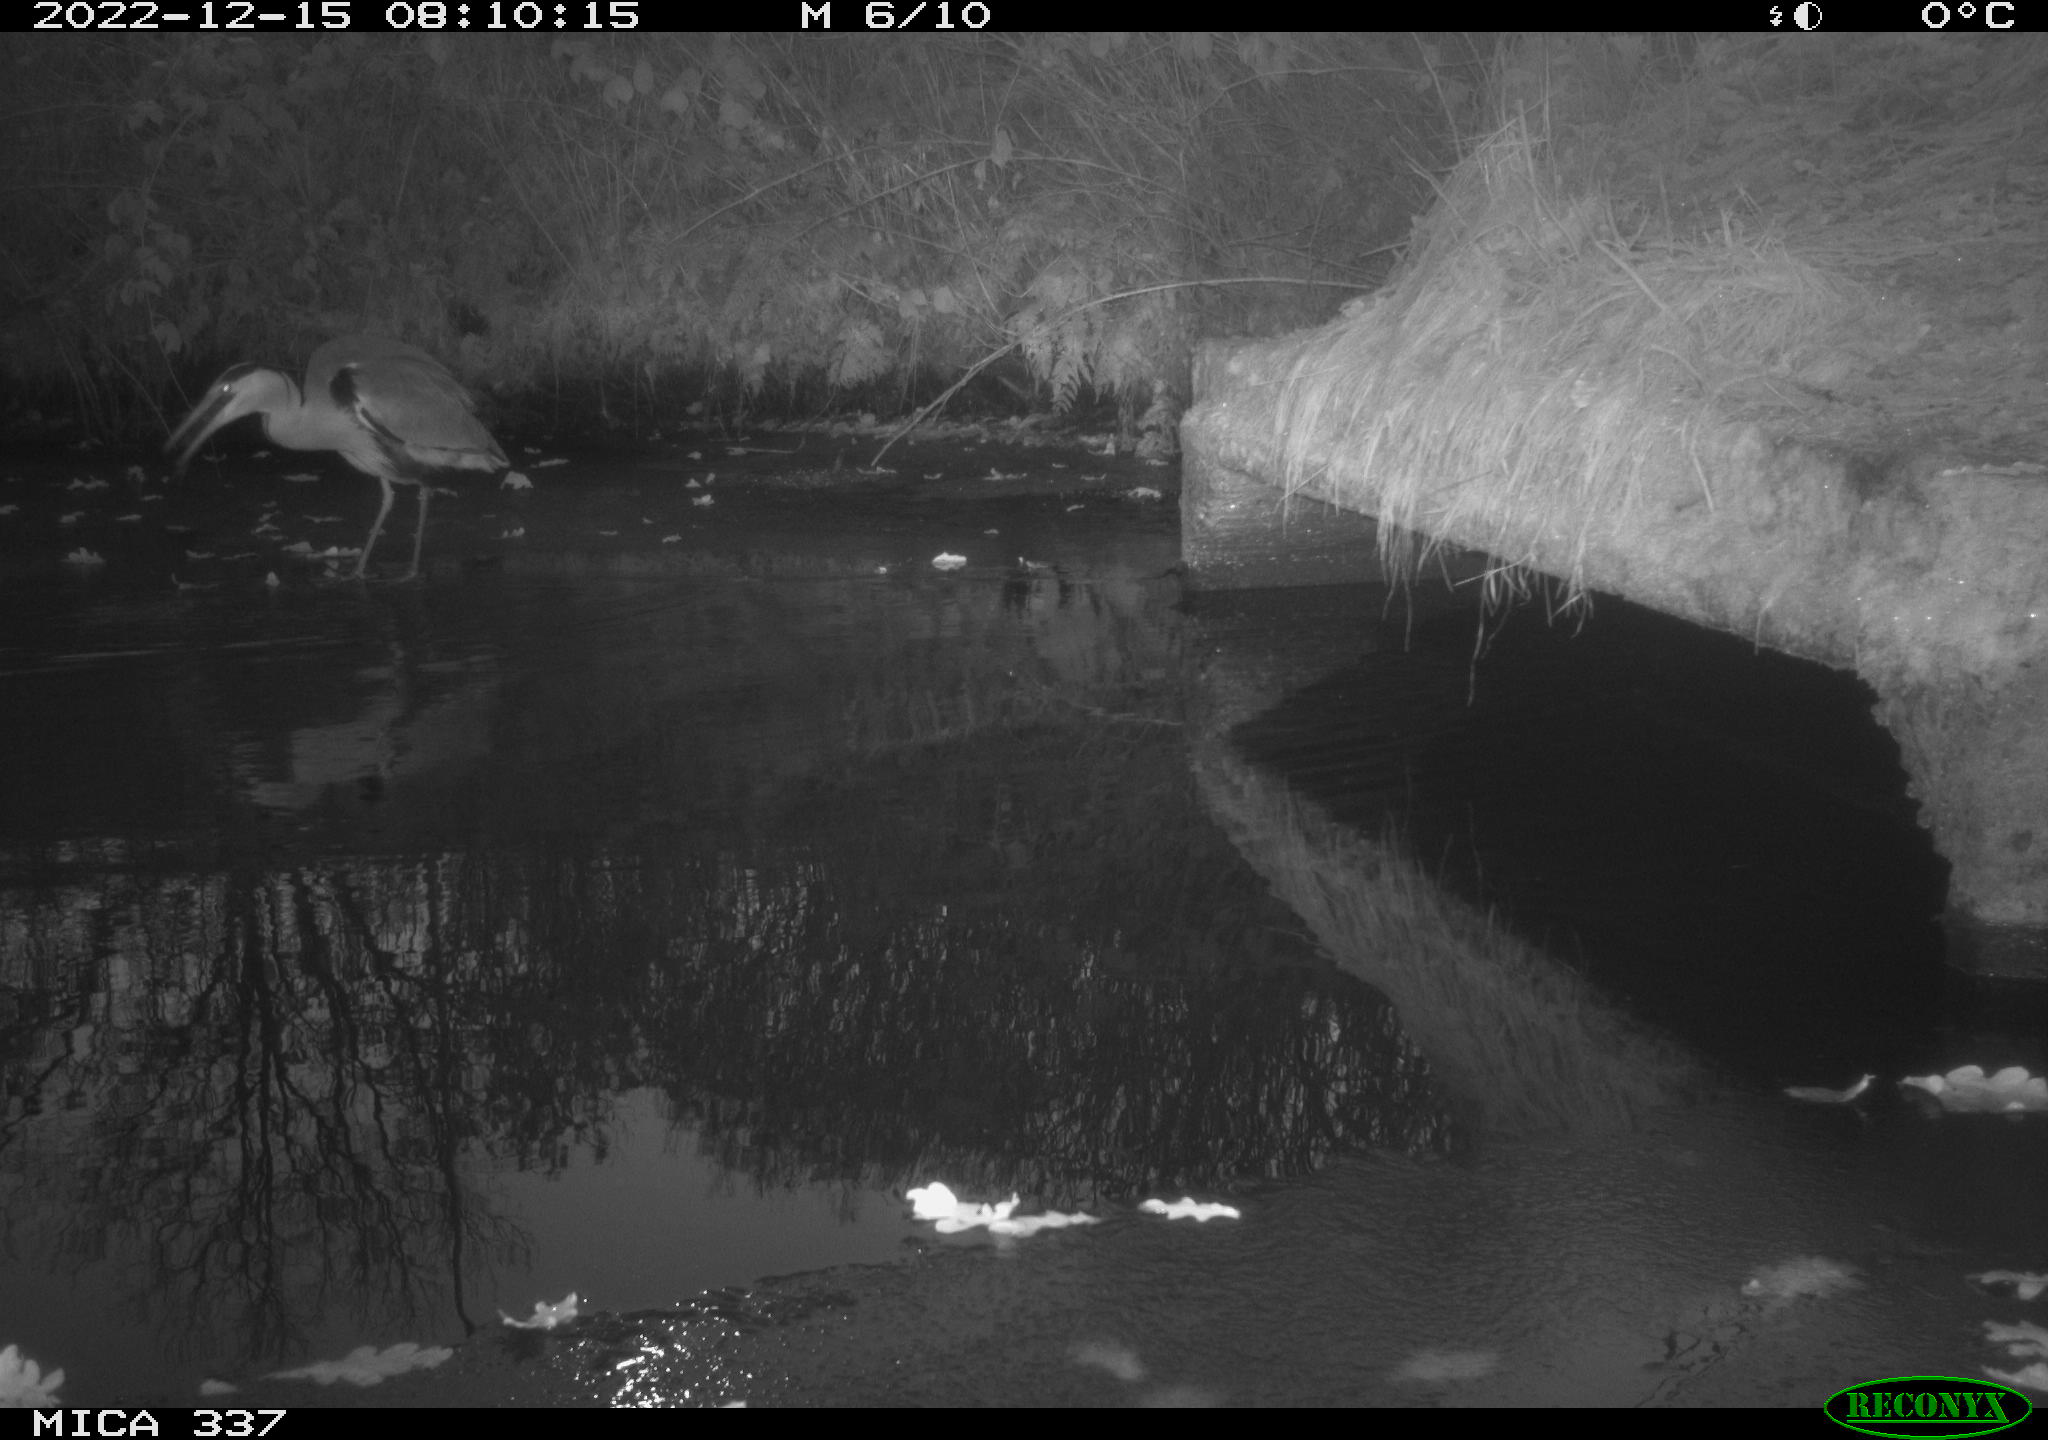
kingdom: Animalia
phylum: Chordata
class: Aves
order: Pelecaniformes
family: Ardeidae
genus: Ardea
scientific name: Ardea cinerea
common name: Grey heron
